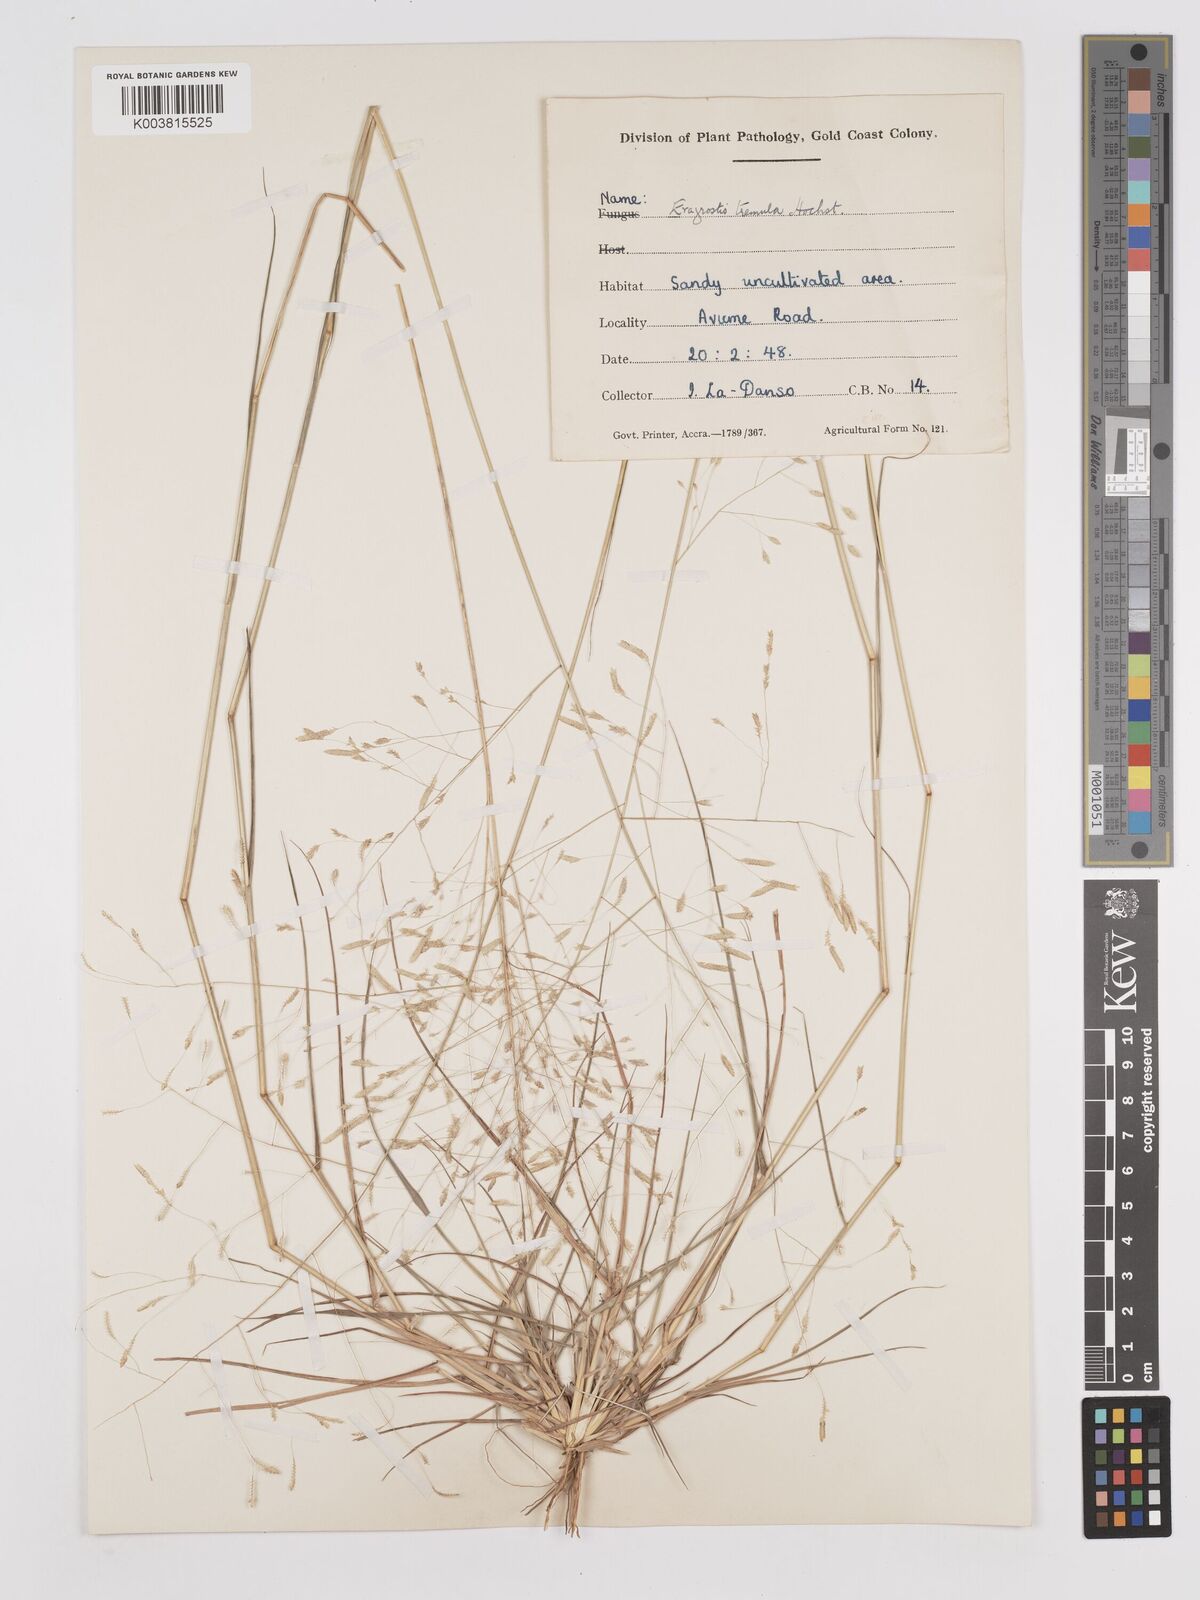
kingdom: Plantae
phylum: Tracheophyta
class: Liliopsida
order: Poales
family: Poaceae
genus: Eragrostis
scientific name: Eragrostis tremula
